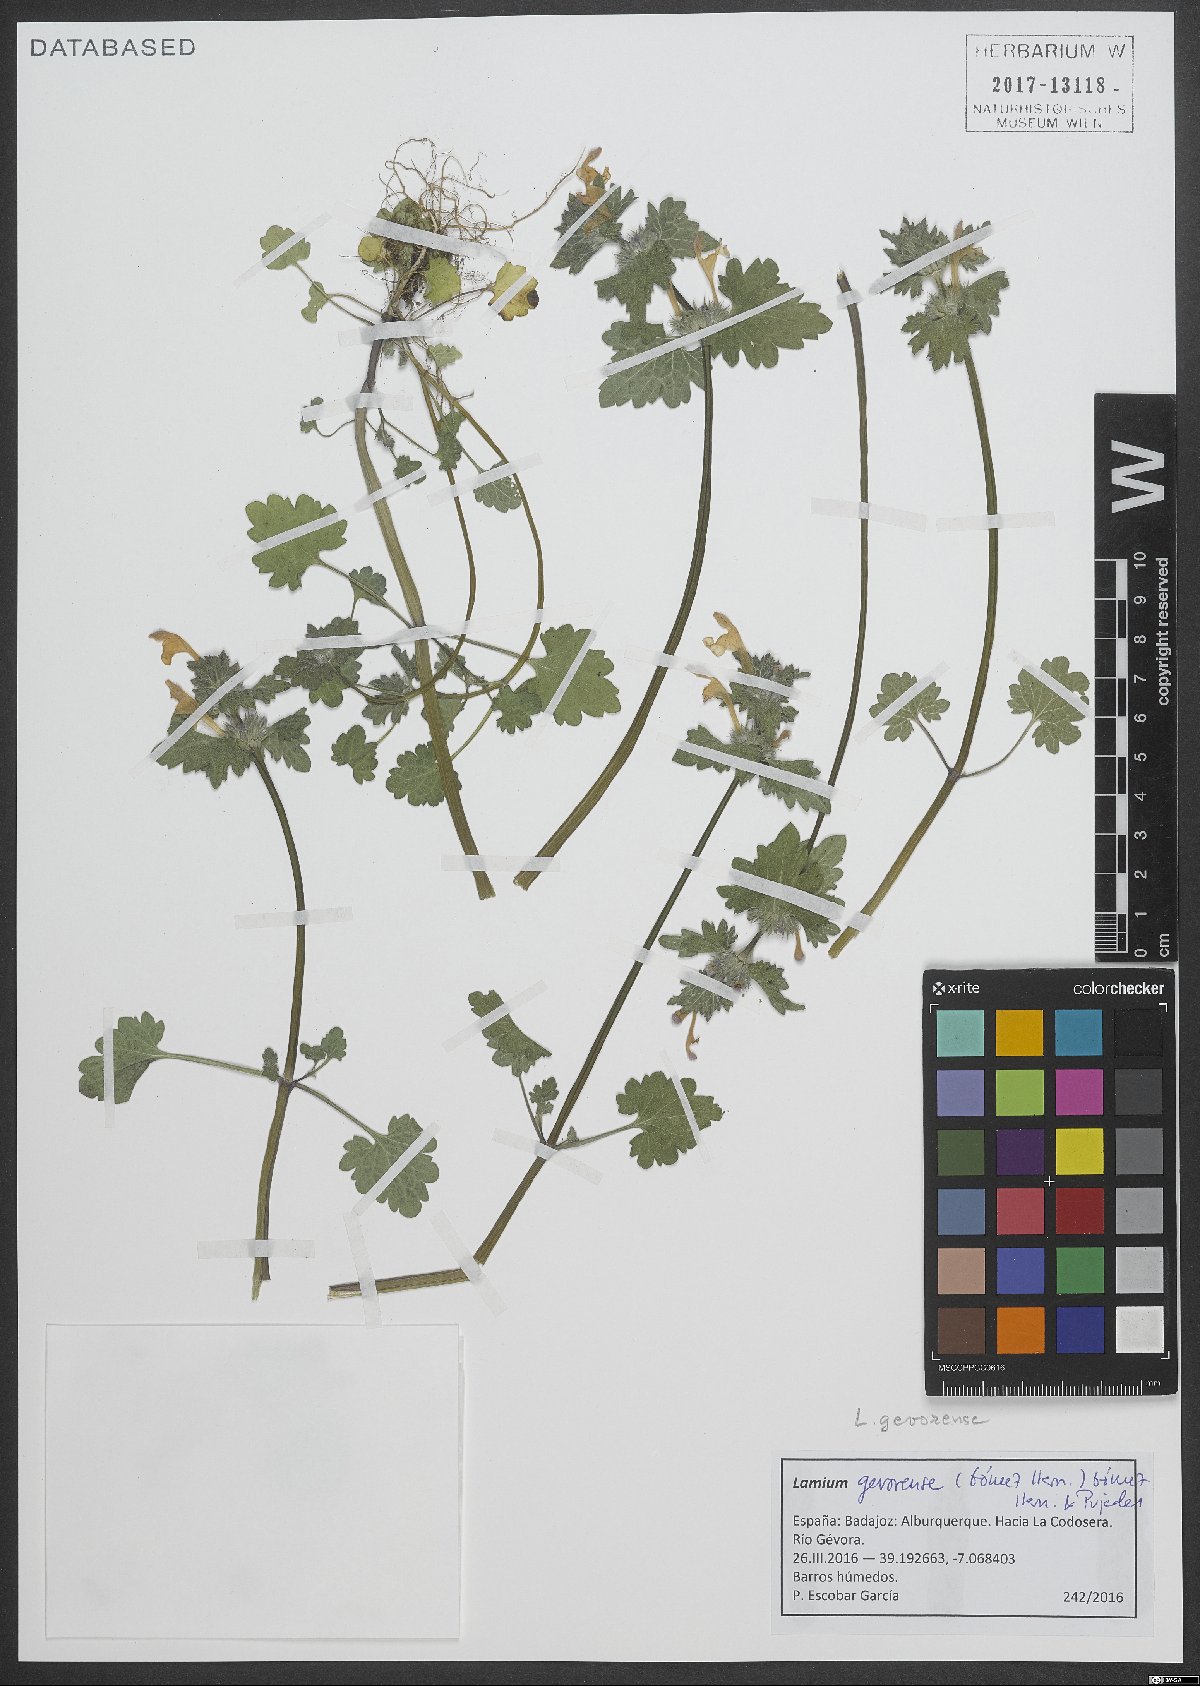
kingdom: Plantae
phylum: Tracheophyta
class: Magnoliopsida
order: Lamiales
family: Lamiaceae
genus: Lamium
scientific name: Lamium gevorense
